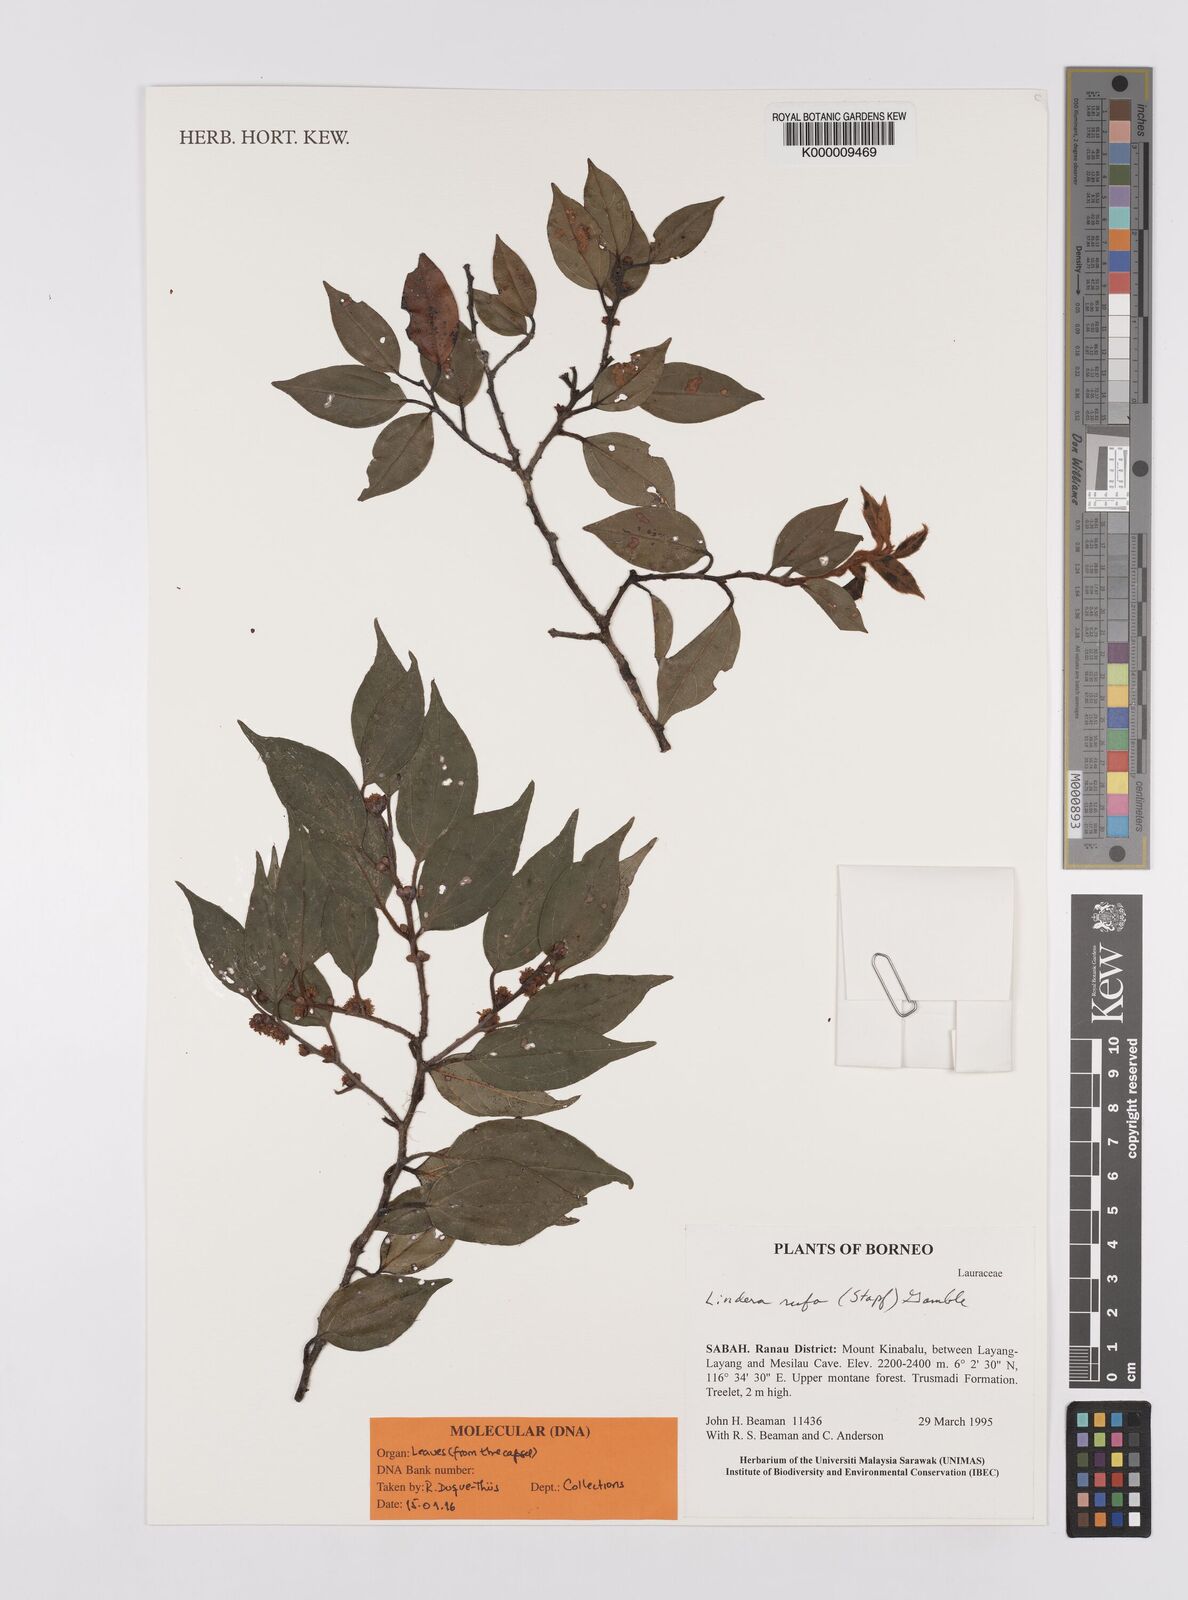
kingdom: Plantae
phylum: Tracheophyta
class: Magnoliopsida
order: Laurales
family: Lauraceae
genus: Lindera
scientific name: Lindera rufa
